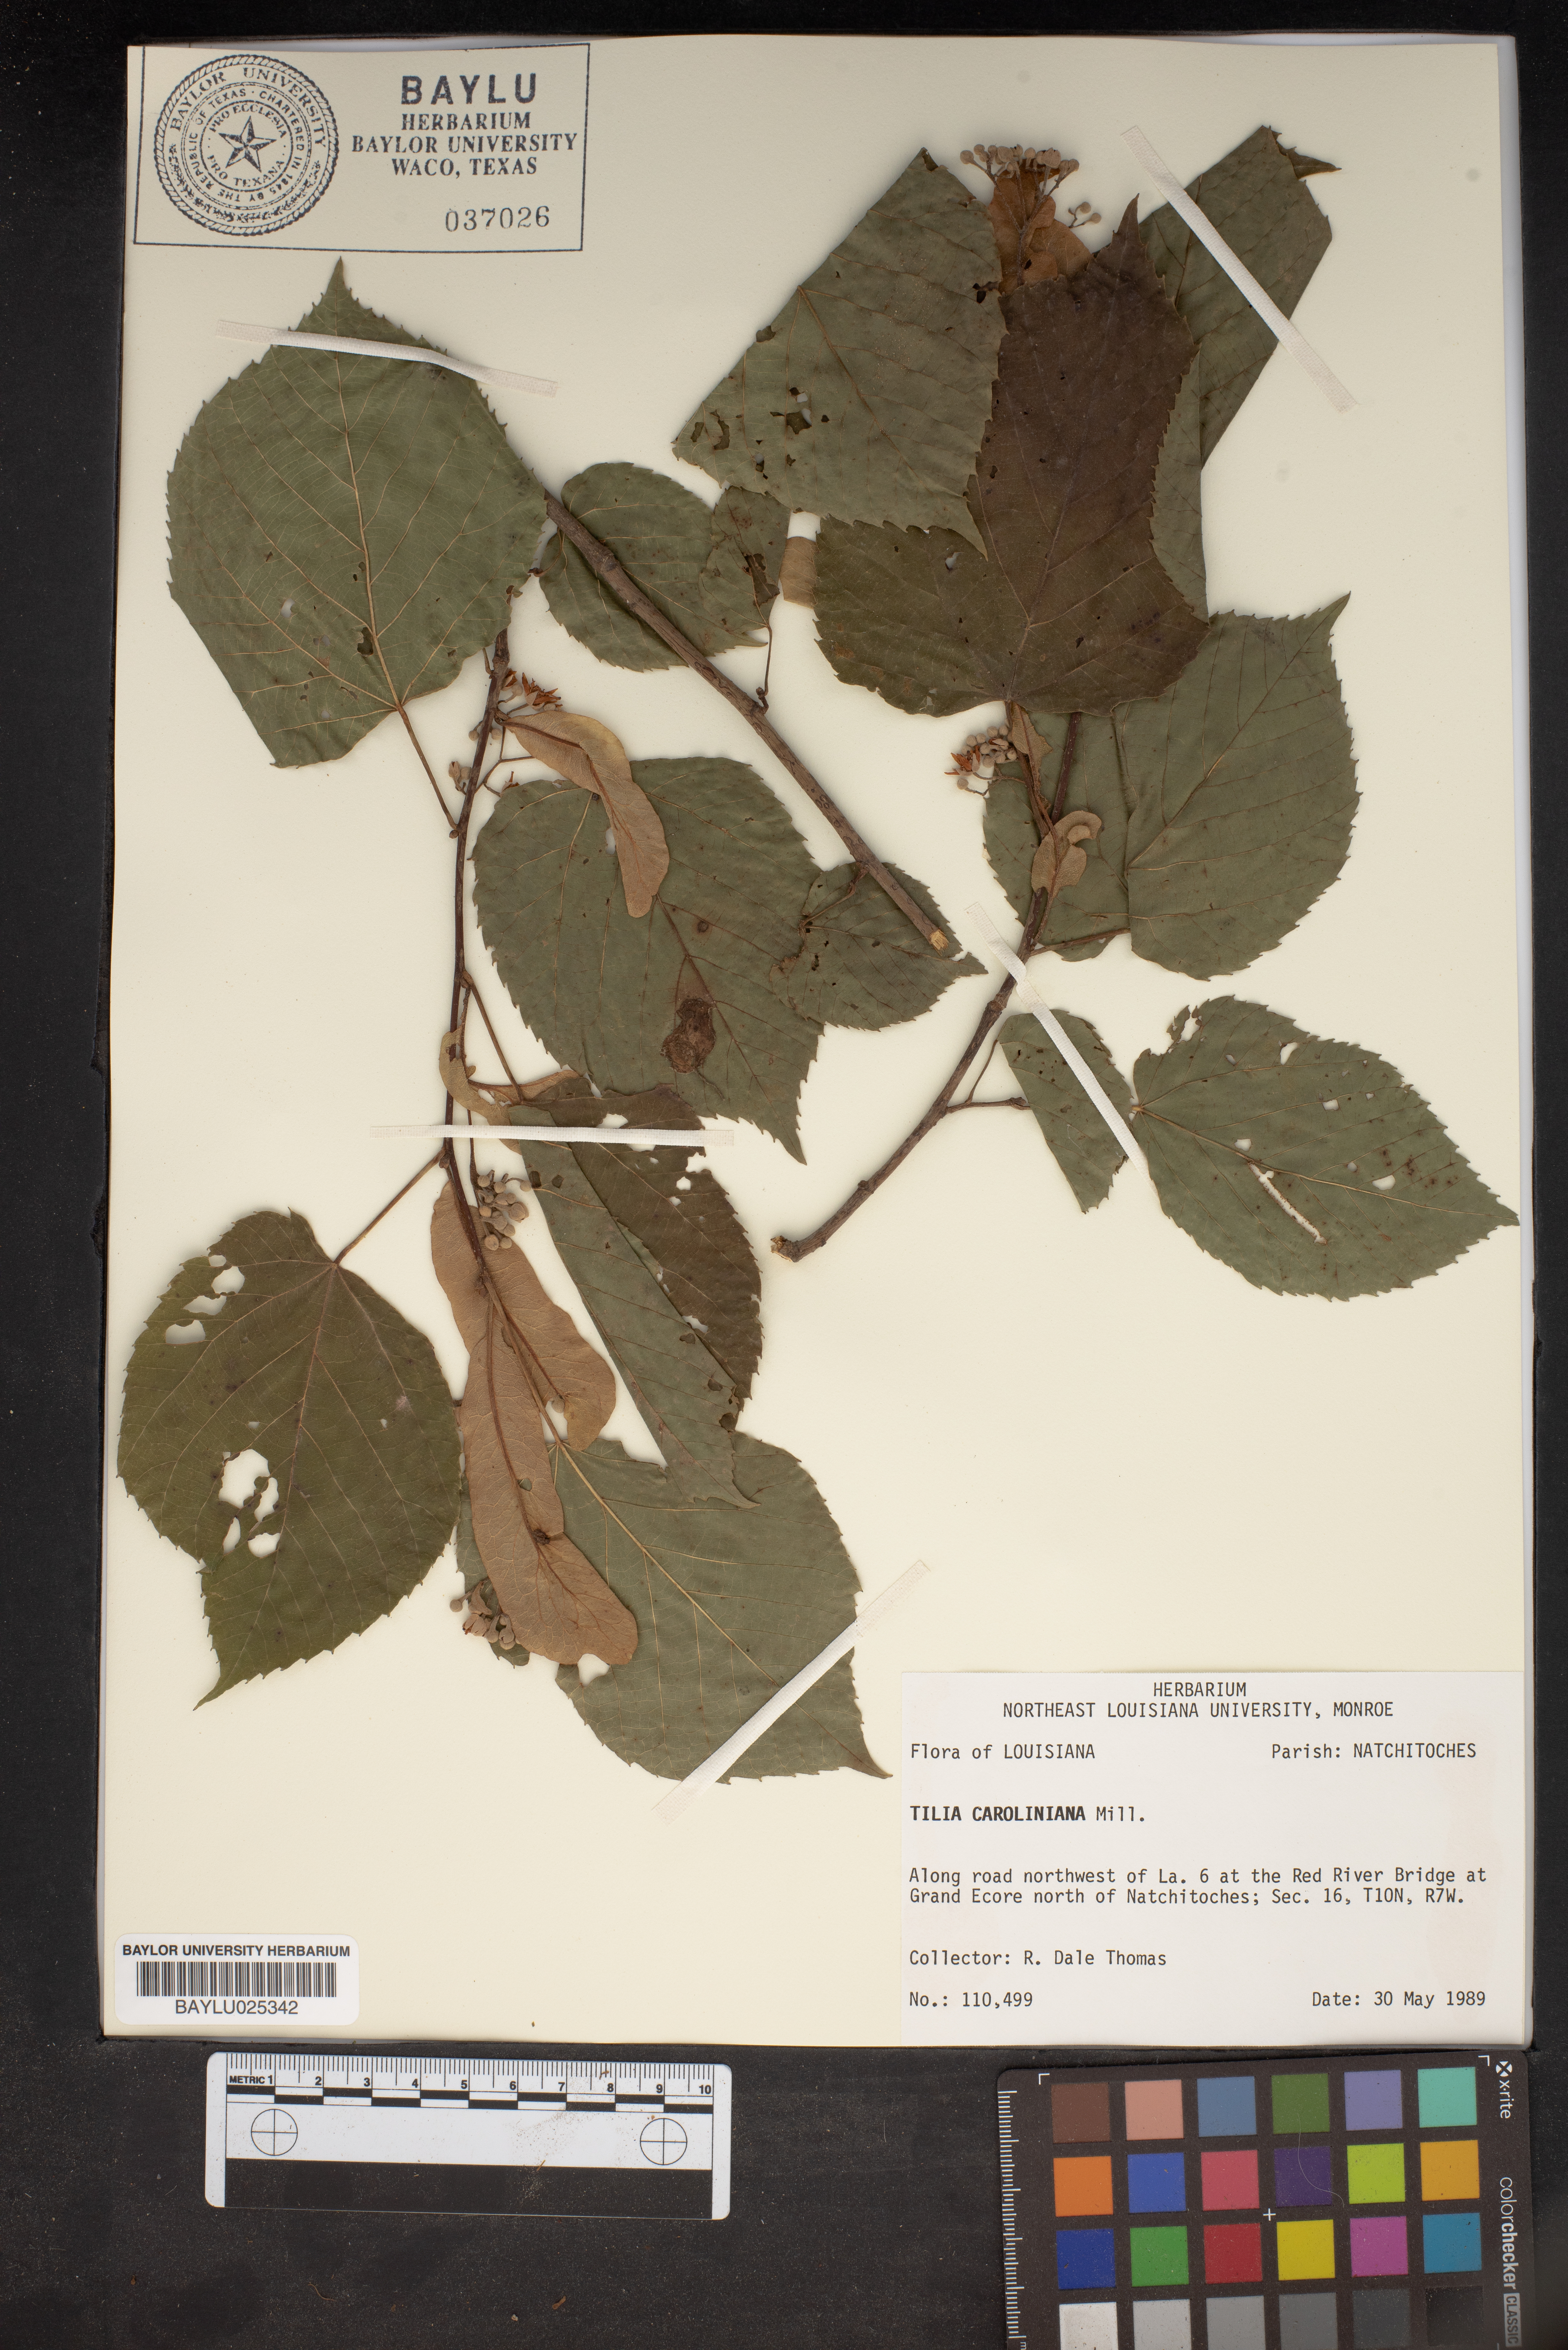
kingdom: Plantae
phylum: Tracheophyta
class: Magnoliopsida
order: Malvales
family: Malvaceae
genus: Tilia
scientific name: Tilia americana
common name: Basswood
